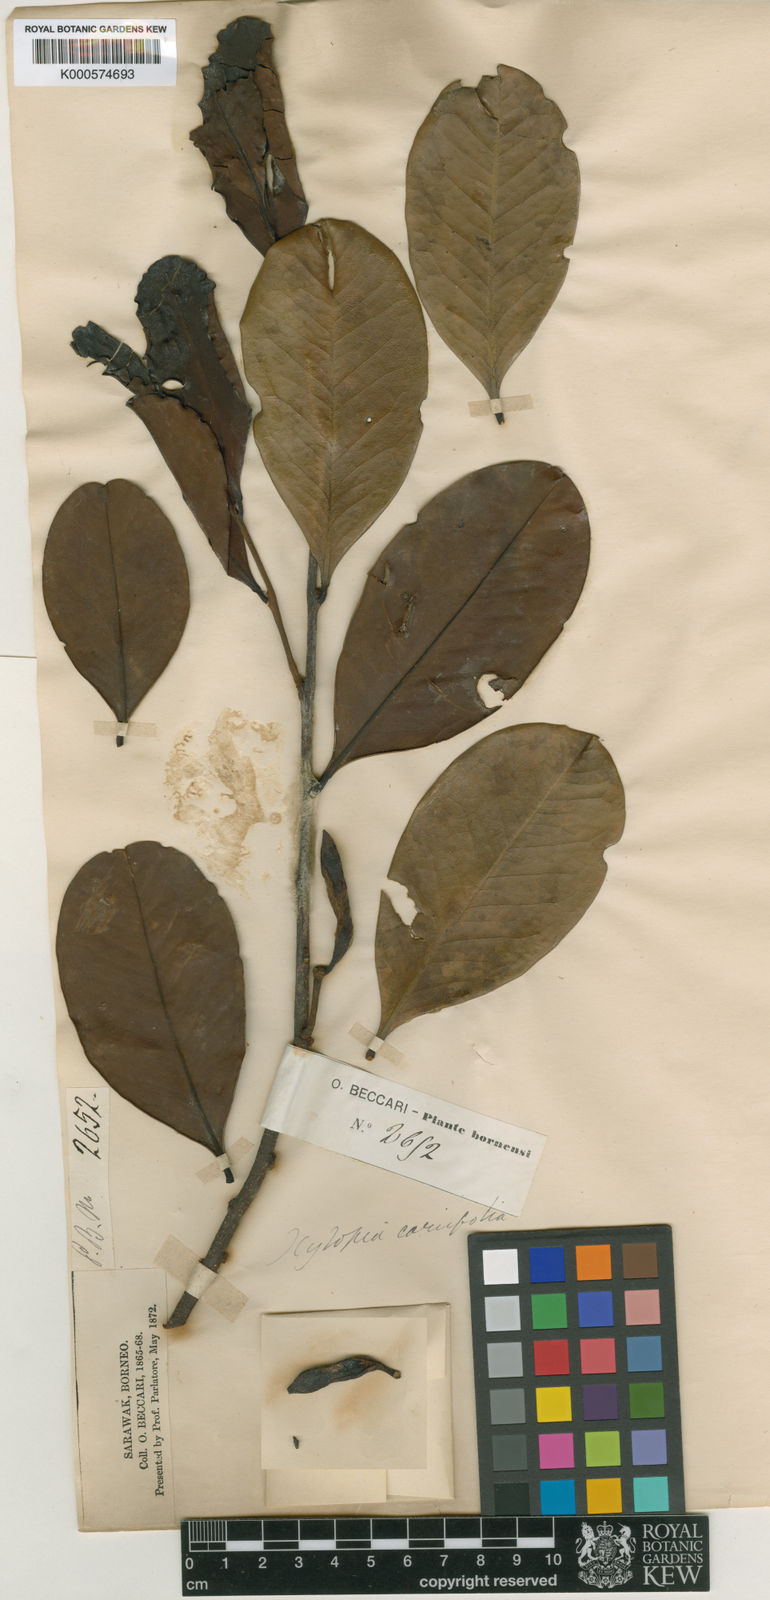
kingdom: Plantae
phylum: Tracheophyta
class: Magnoliopsida
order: Magnoliales
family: Annonaceae
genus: Xylopia
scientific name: Xylopia coriifolia
